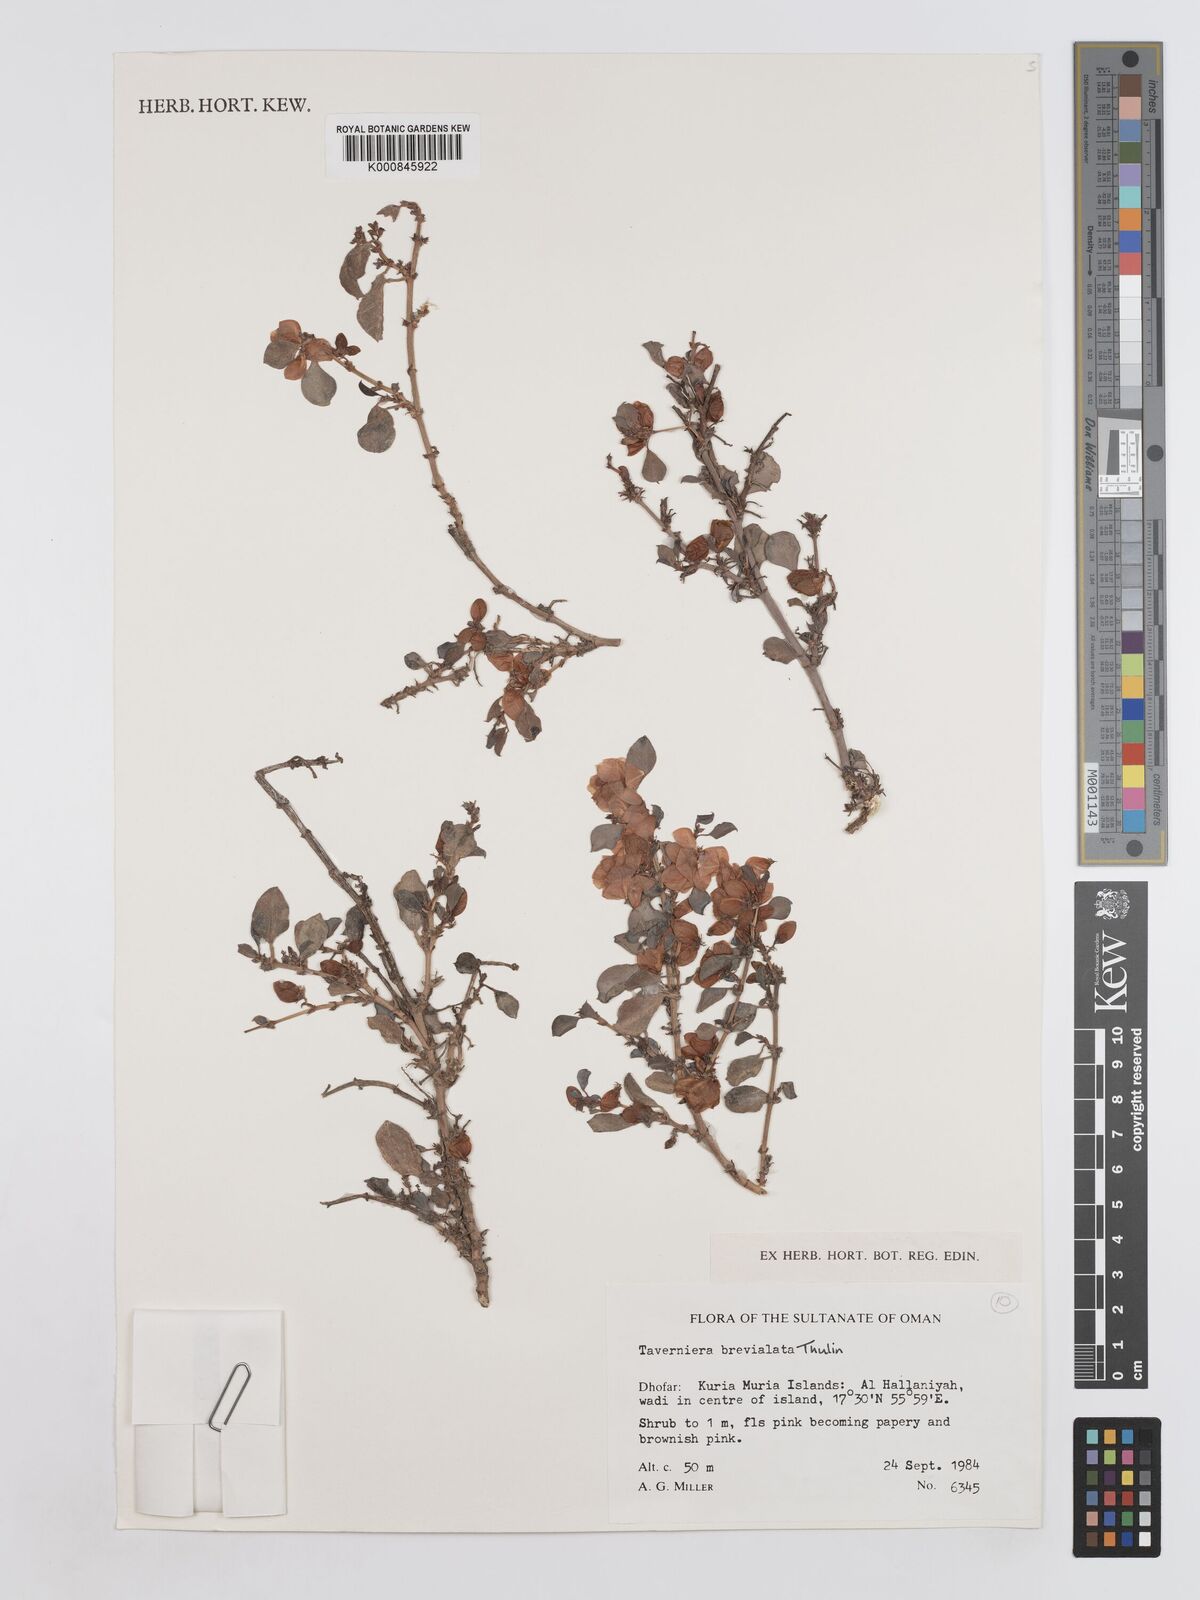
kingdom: Plantae
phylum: Tracheophyta
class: Magnoliopsida
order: Fabales
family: Fabaceae
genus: Taverniera
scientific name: Taverniera brevialata
